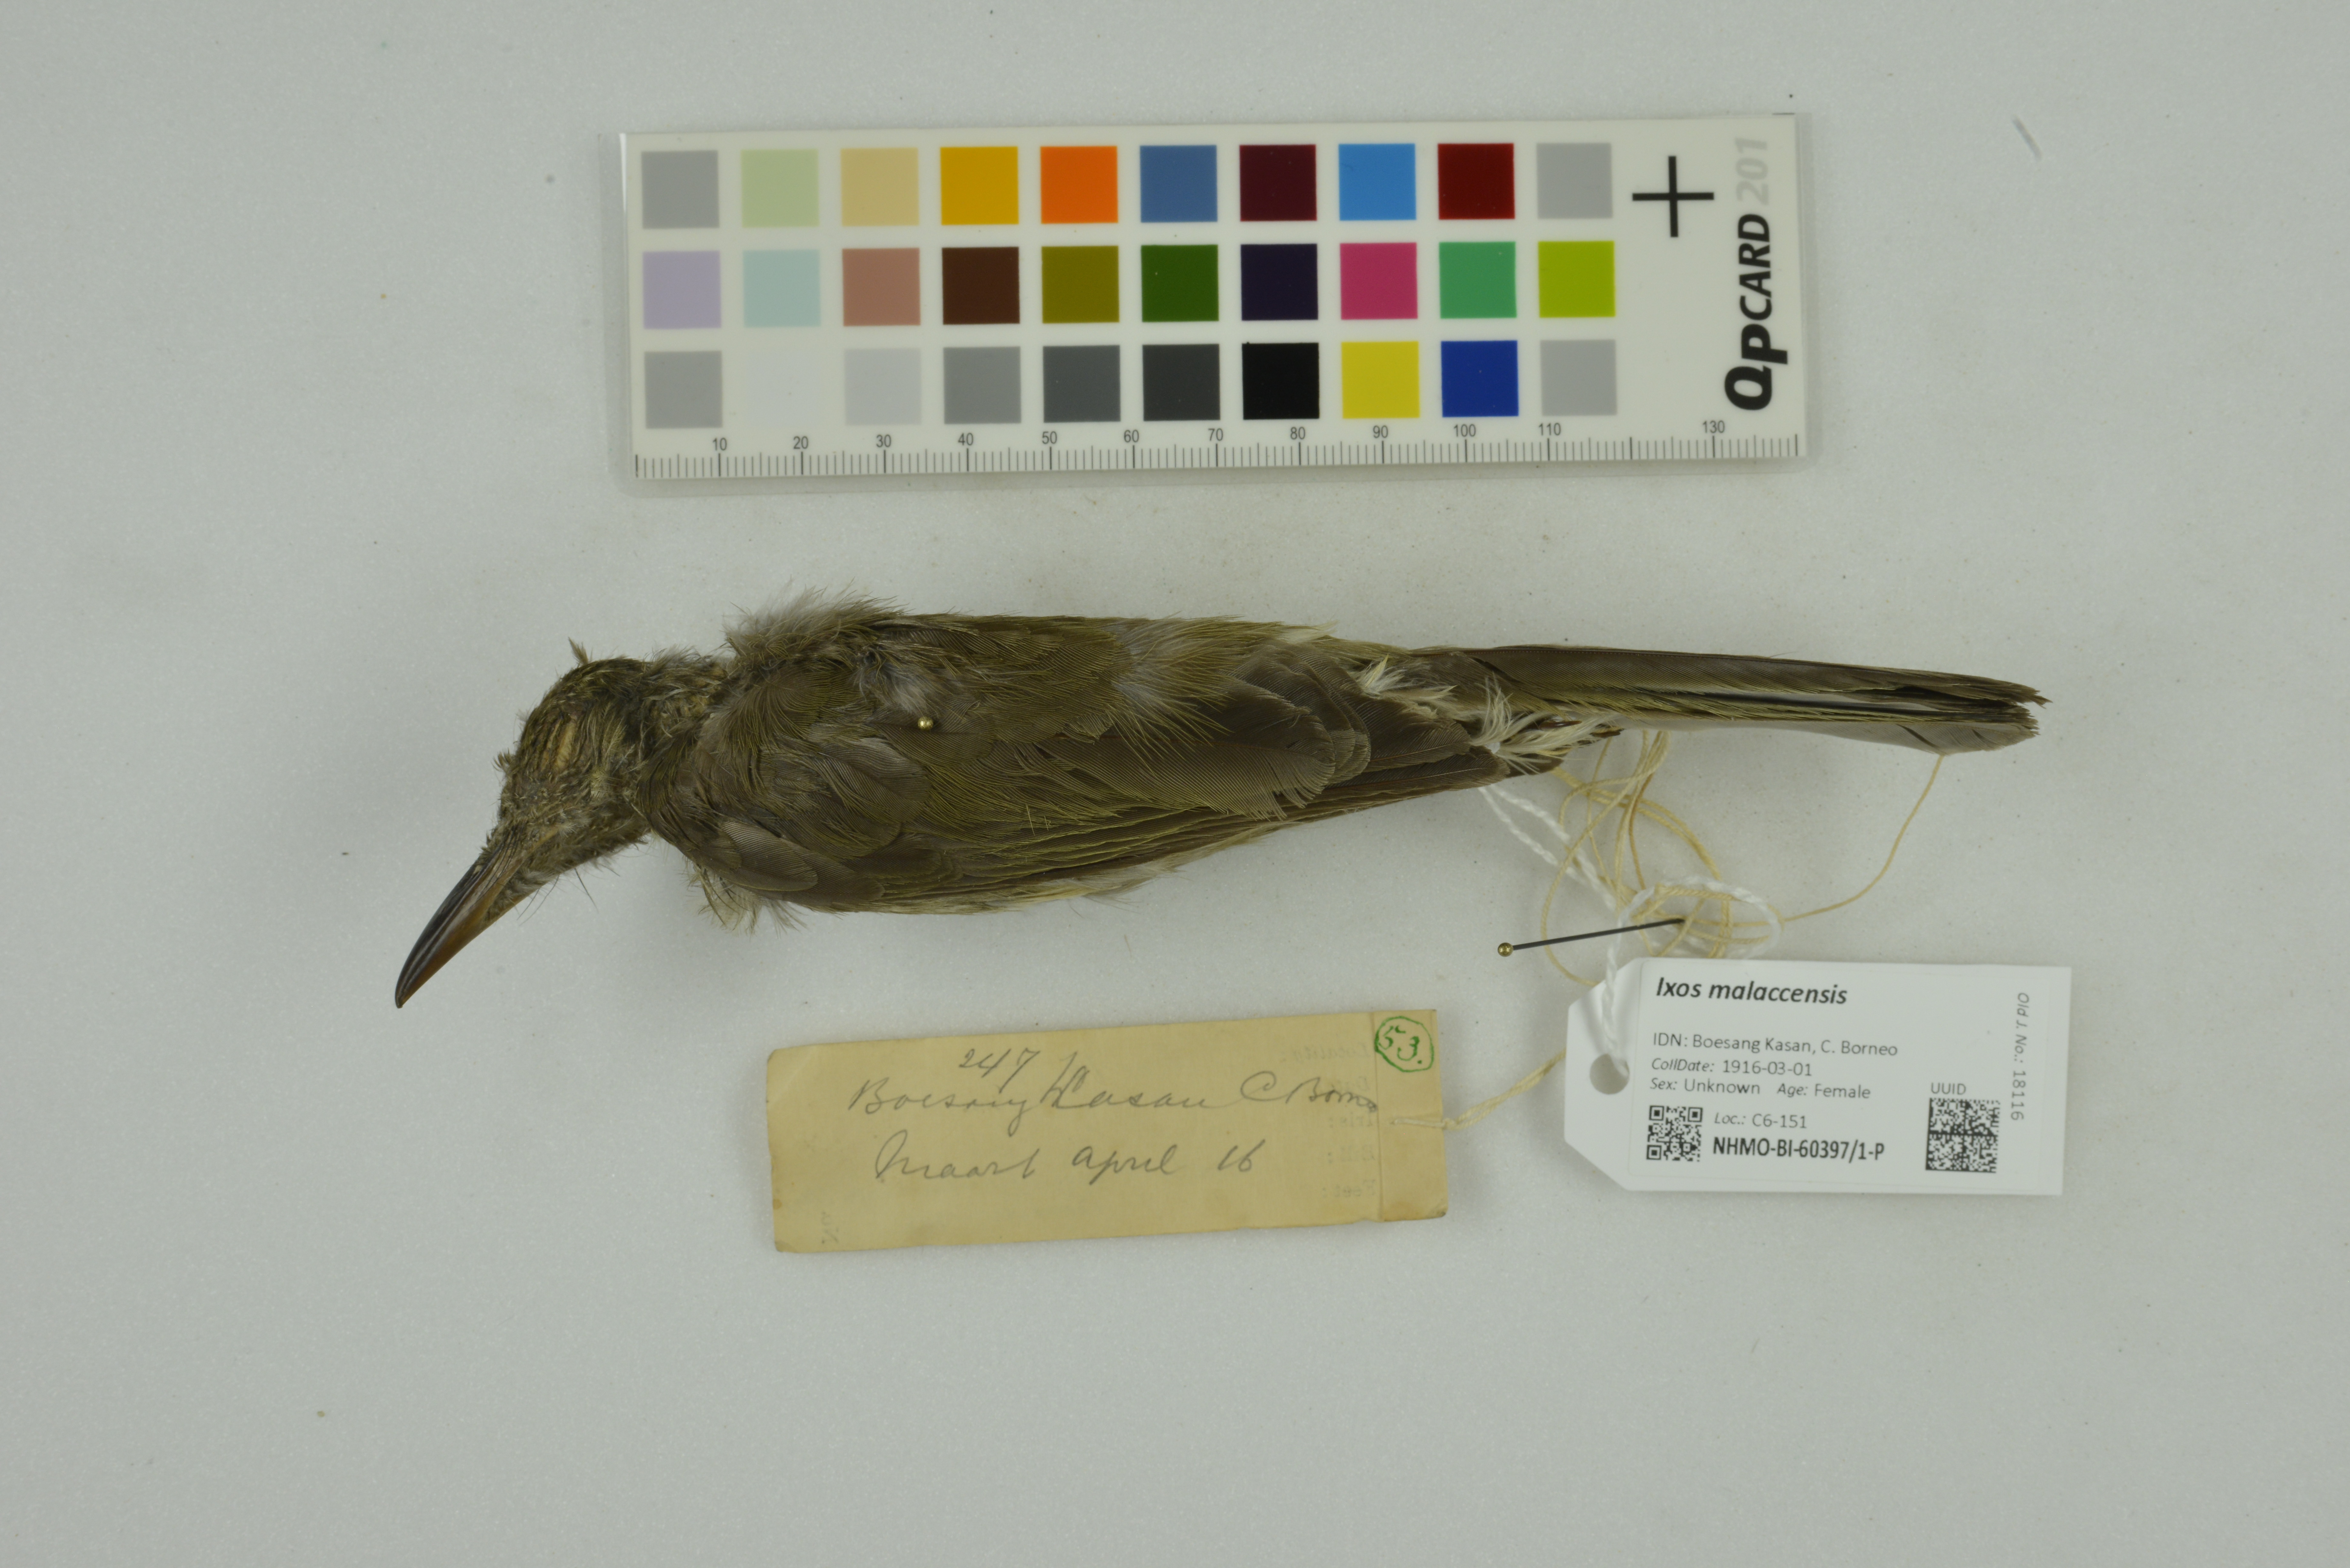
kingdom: Animalia
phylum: Chordata
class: Aves
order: Passeriformes
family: Pycnonotidae
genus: Ixos
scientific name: Ixos malaccensis
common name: Streaked bulbul
